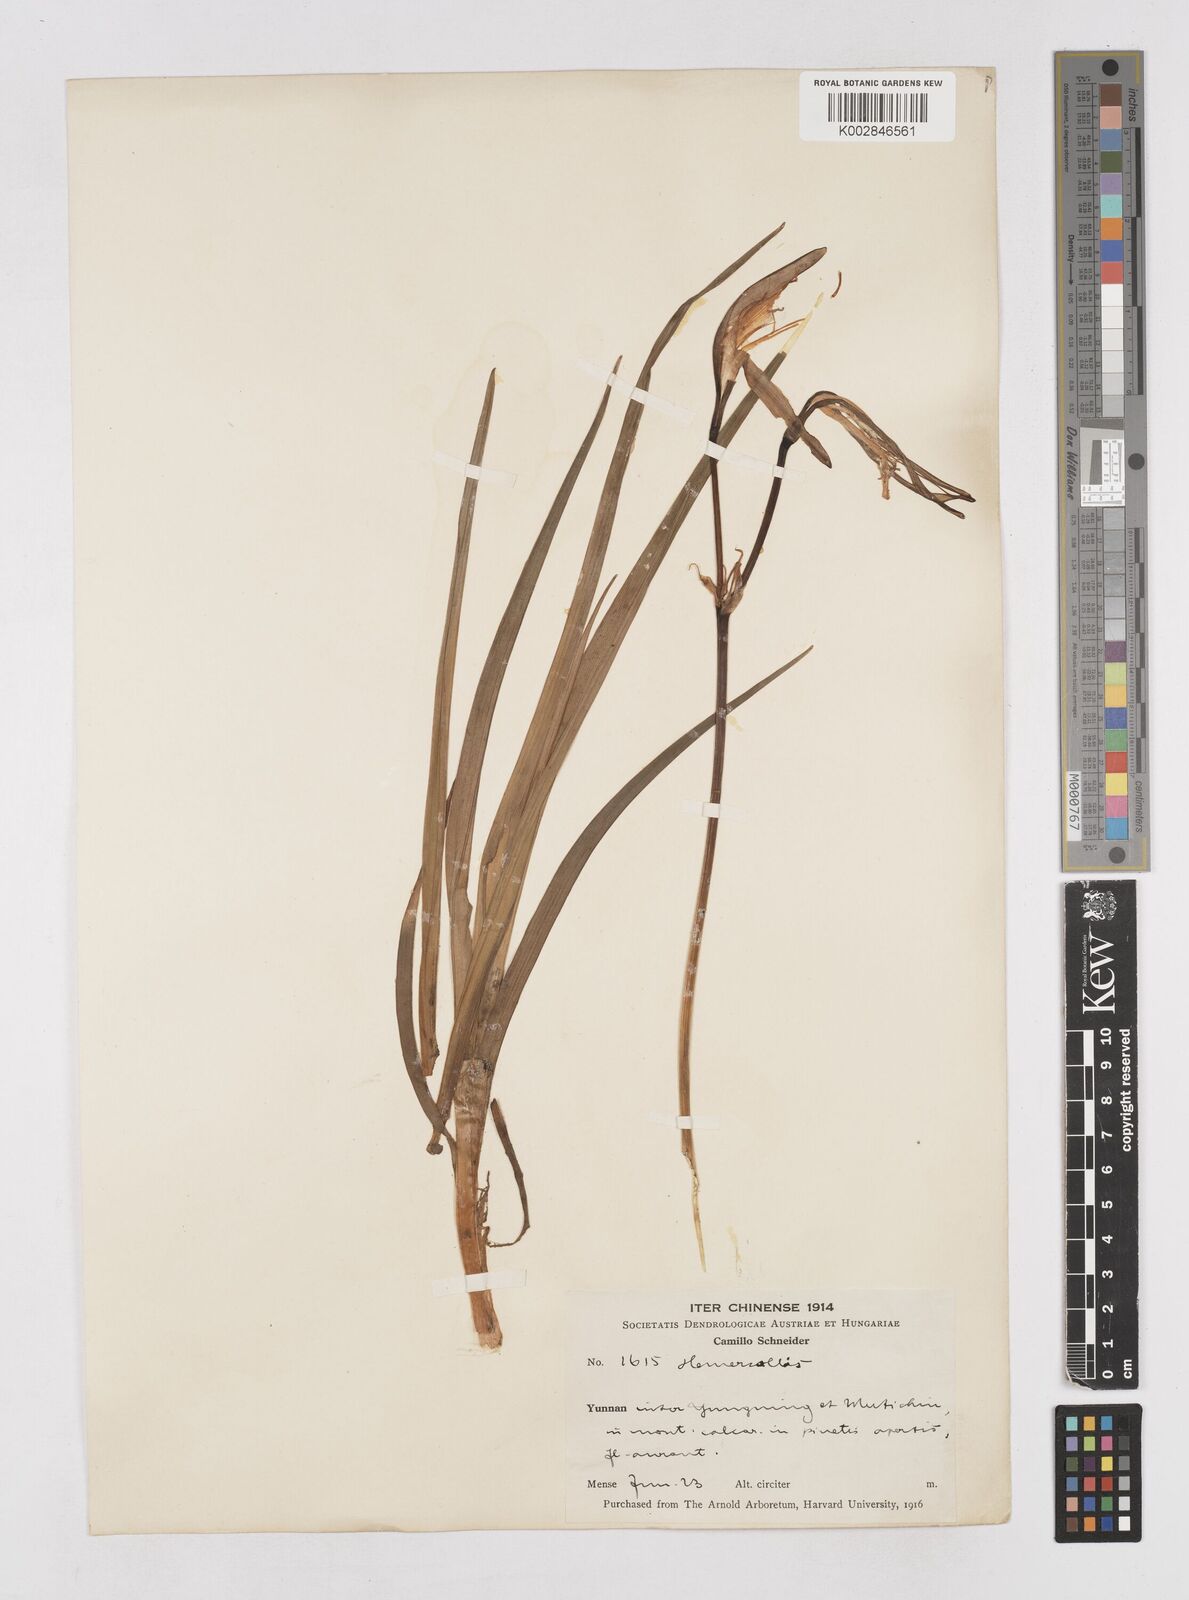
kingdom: Plantae
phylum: Tracheophyta
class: Liliopsida
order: Asparagales
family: Asphodelaceae
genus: Hemerocallis
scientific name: Hemerocallis forrestii
